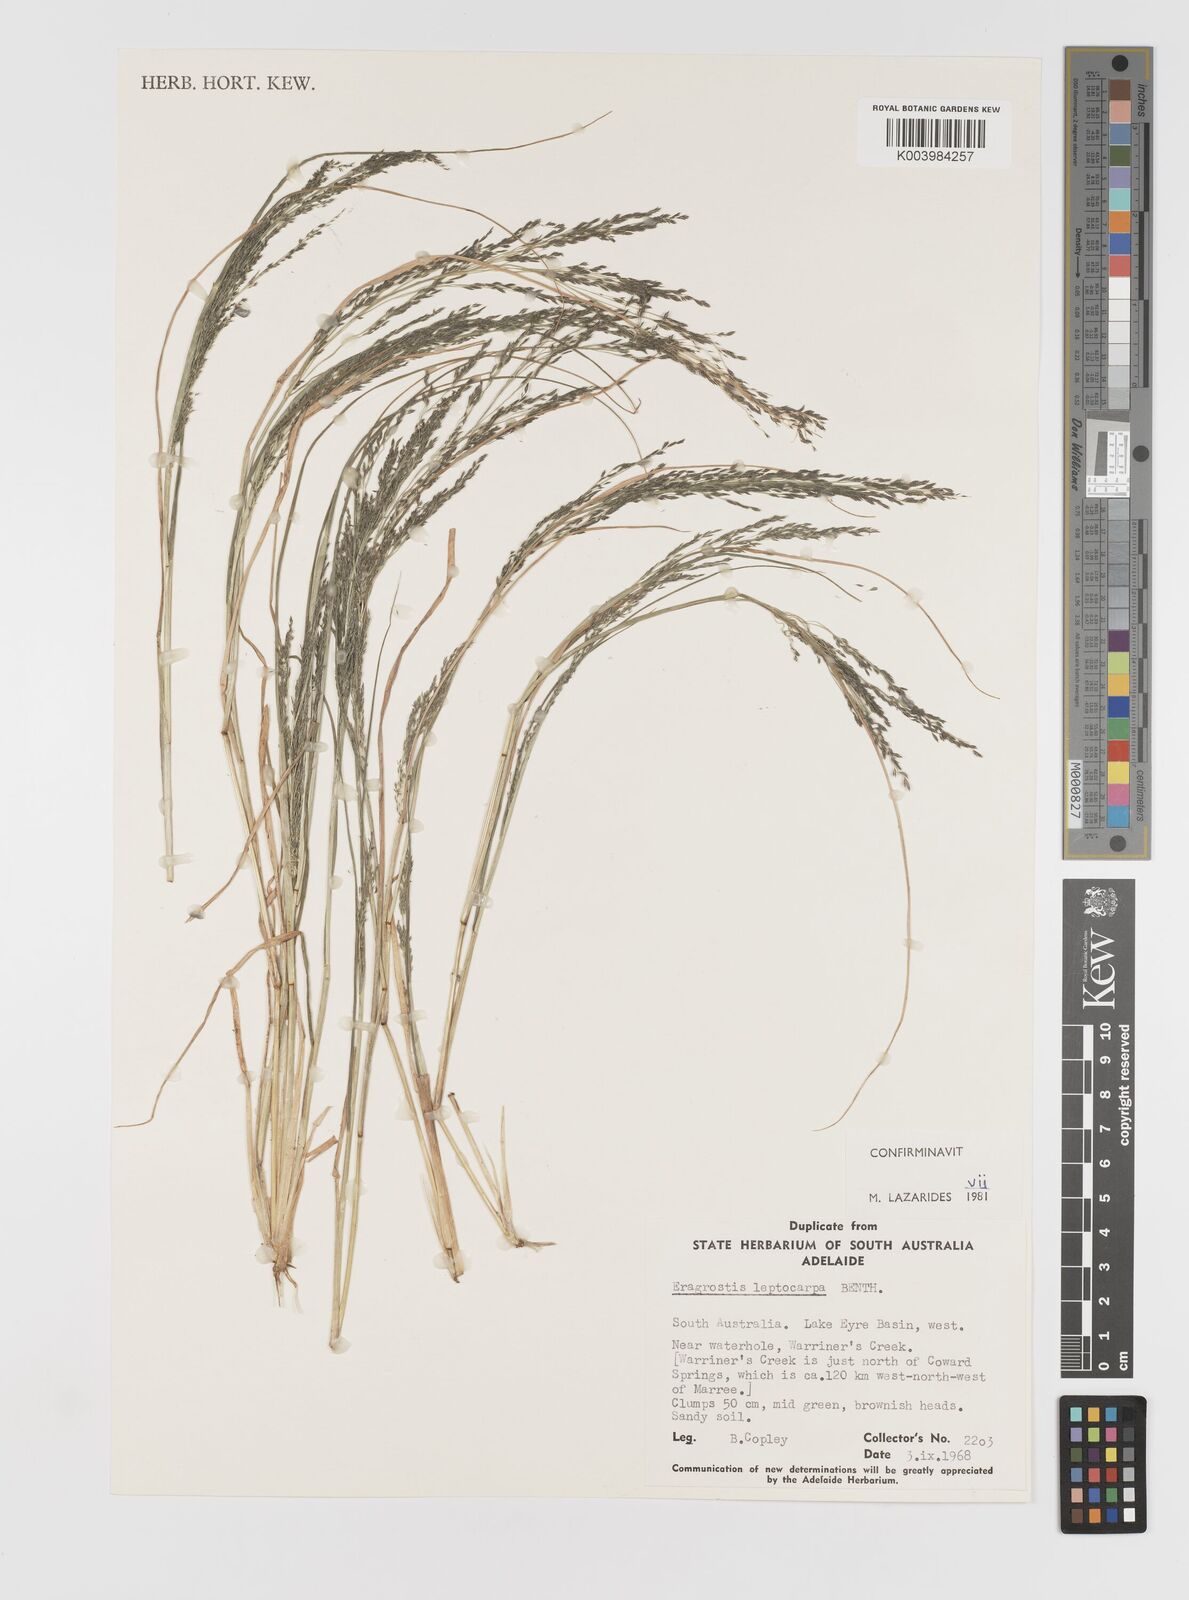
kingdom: Plantae
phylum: Tracheophyta
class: Liliopsida
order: Poales
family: Poaceae
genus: Eragrostis
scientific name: Eragrostis leptocarpa
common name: Drooping love grass
